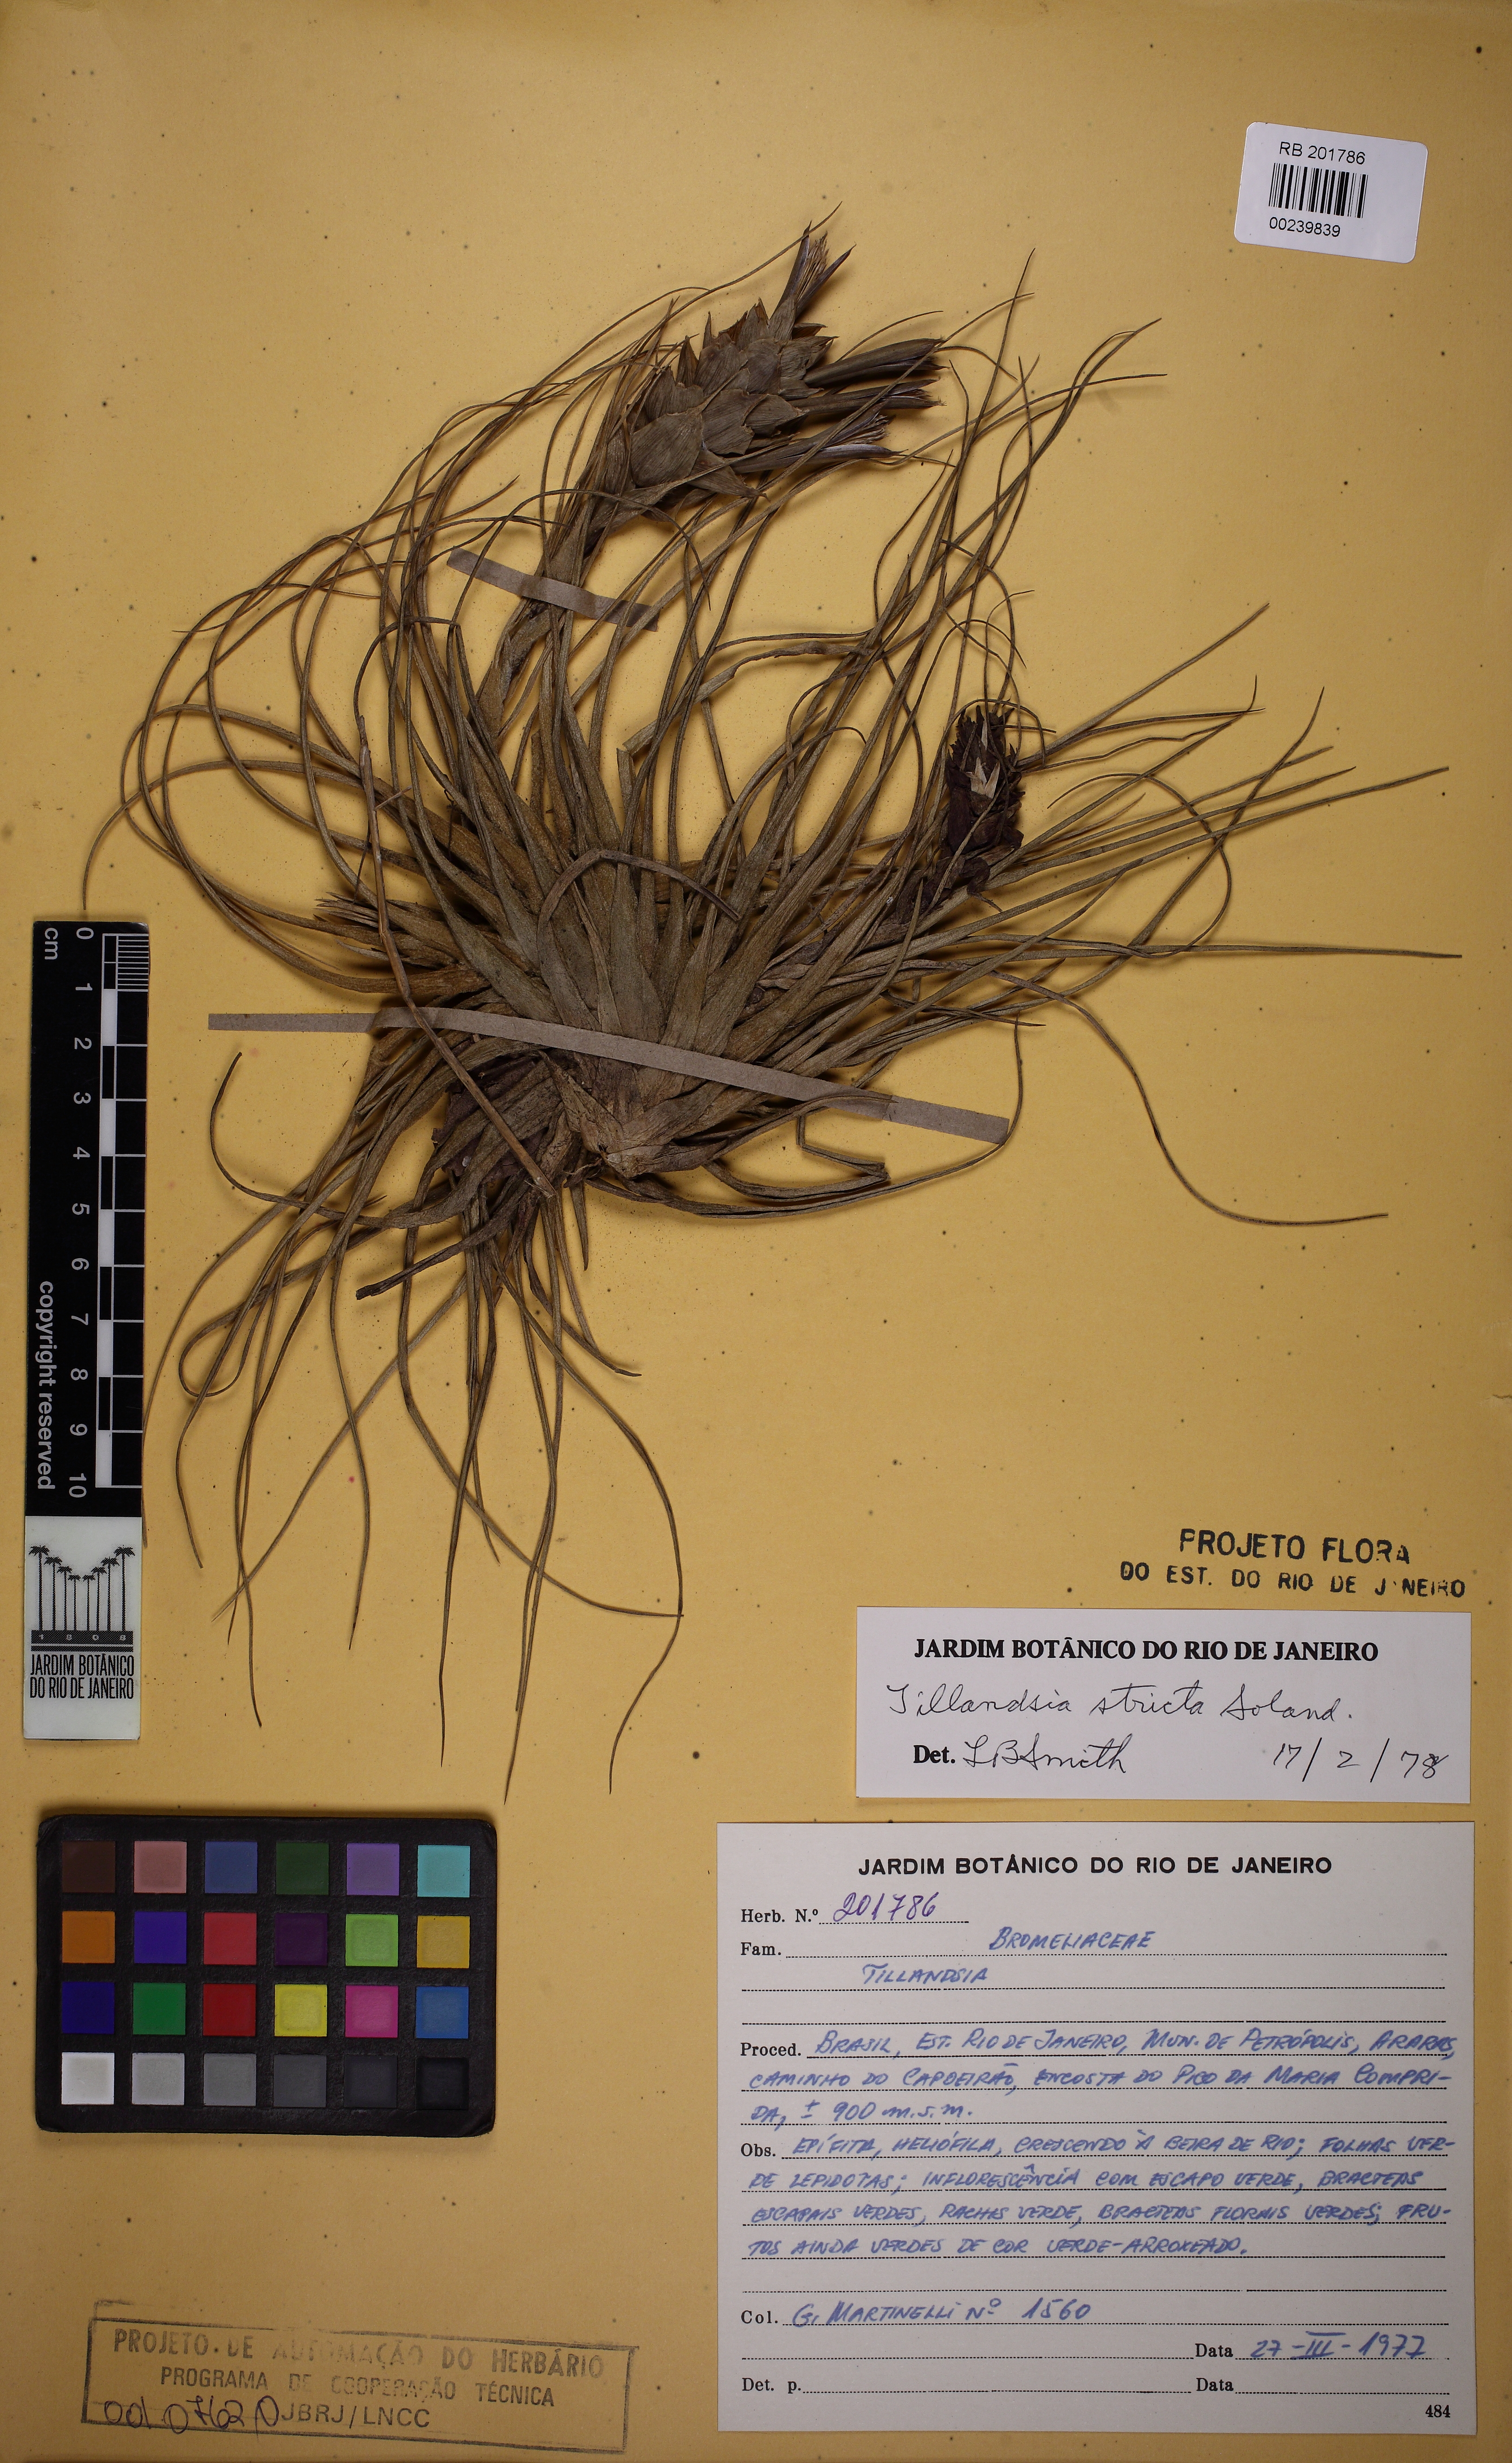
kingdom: Plantae
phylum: Tracheophyta
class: Liliopsida
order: Poales
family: Bromeliaceae
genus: Tillandsia
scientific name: Tillandsia stricta
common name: Airplant
